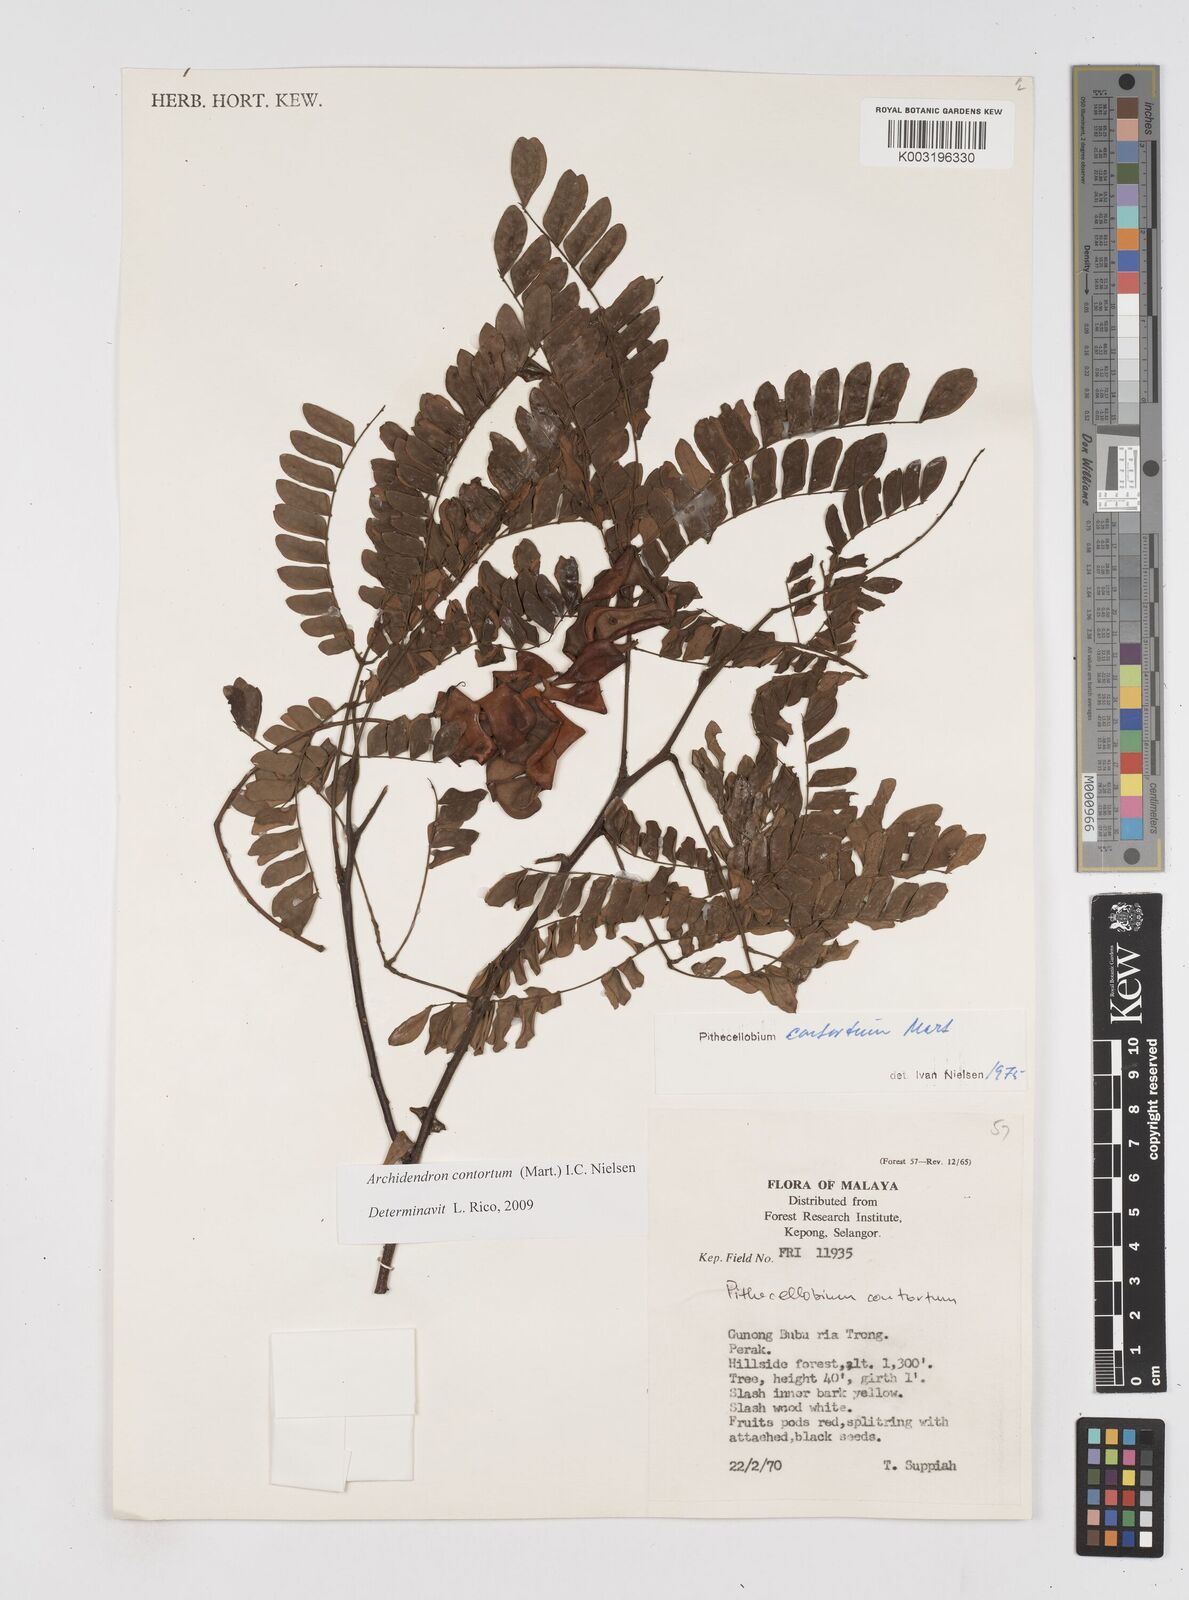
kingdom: Plantae
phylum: Tracheophyta
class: Magnoliopsida
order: Fabales
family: Fabaceae
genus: Archidendron
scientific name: Archidendron contortum
